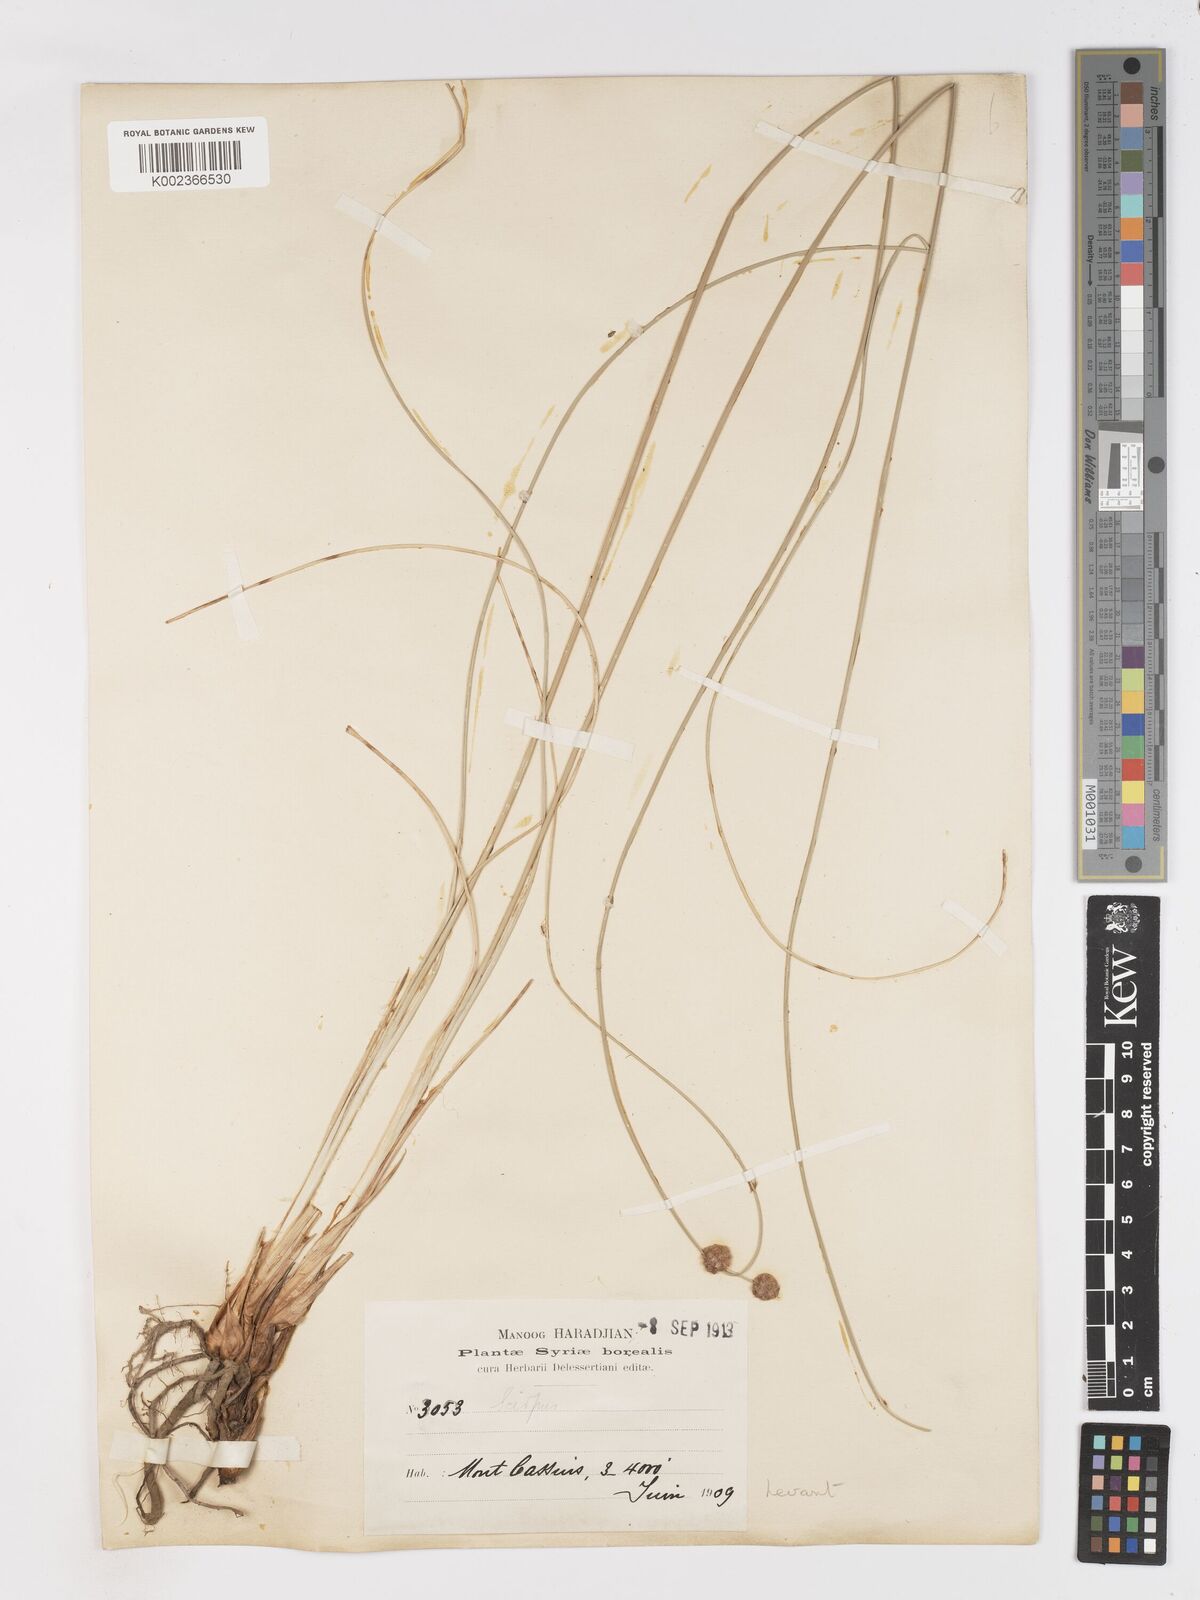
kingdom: Plantae
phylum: Tracheophyta
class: Liliopsida
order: Poales
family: Cyperaceae
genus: Scirpoides
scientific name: Scirpoides holoschoenus
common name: Round-headed club-rush
